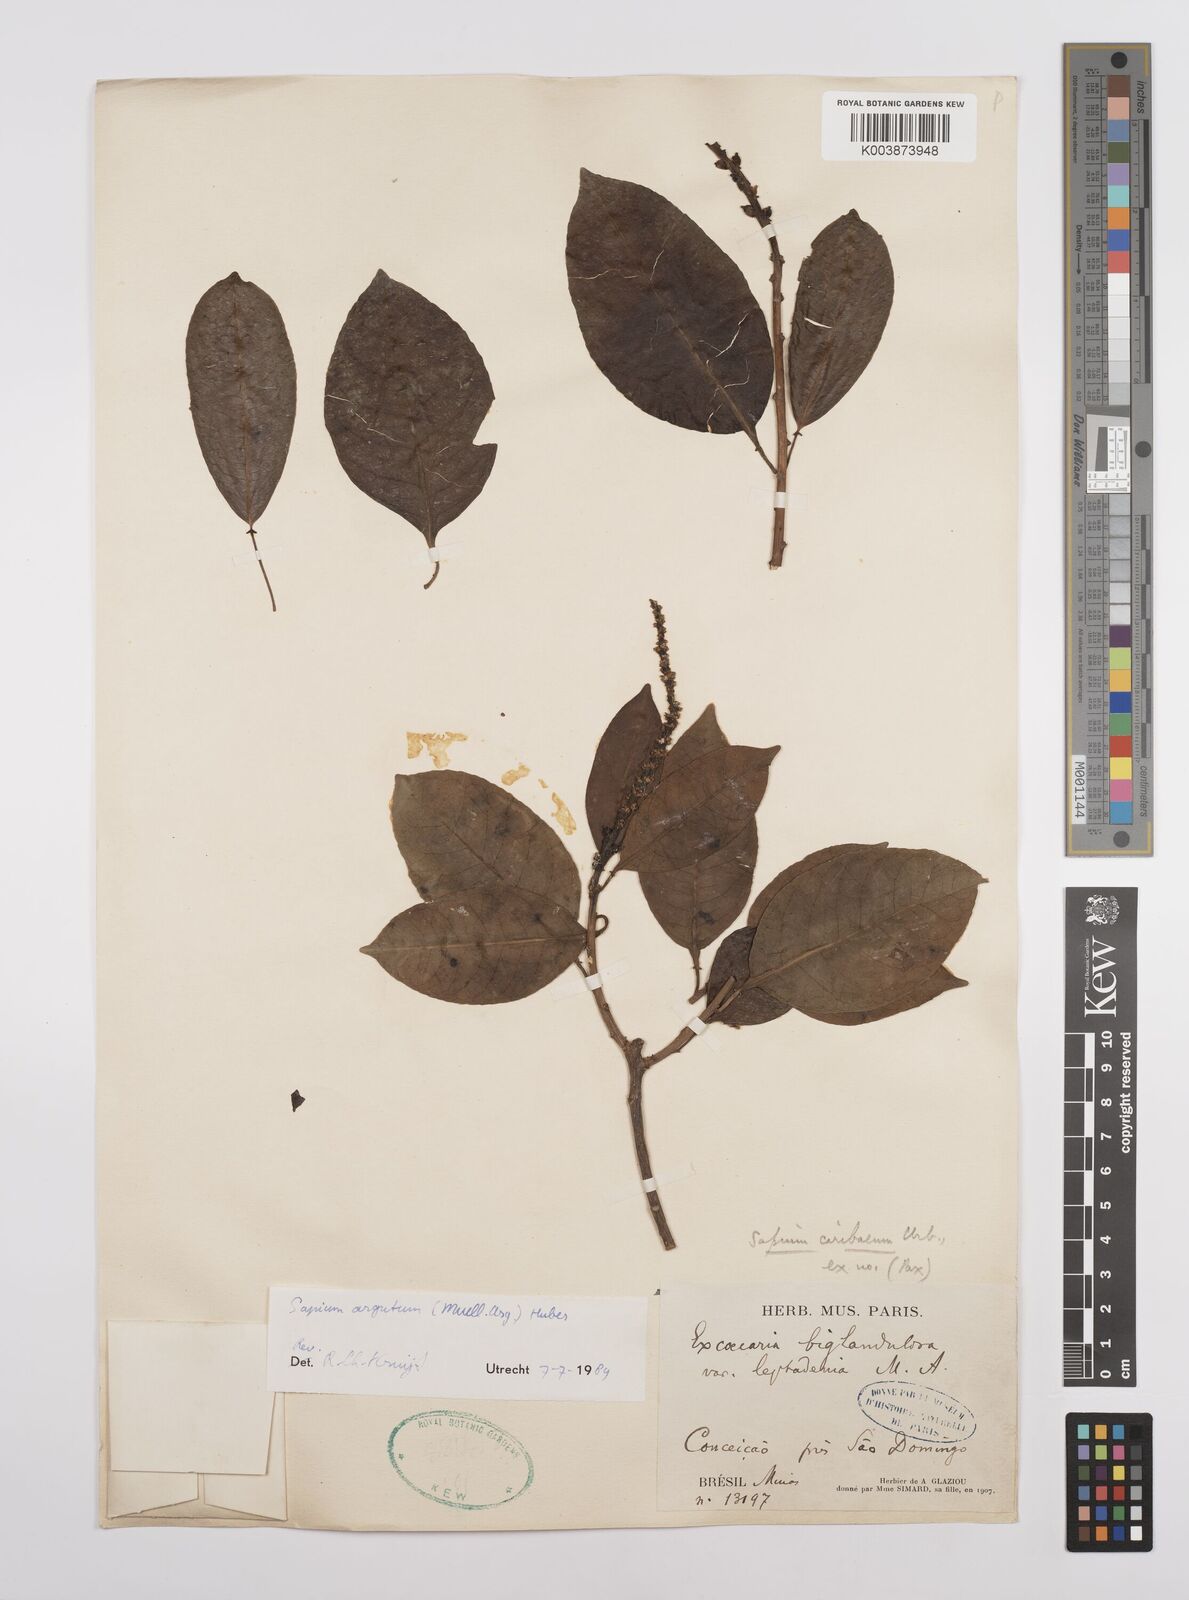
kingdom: Plantae
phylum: Tracheophyta
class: Magnoliopsida
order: Malpighiales
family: Euphorbiaceae
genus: Sapium
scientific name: Sapium glandulosum
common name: Milktree
